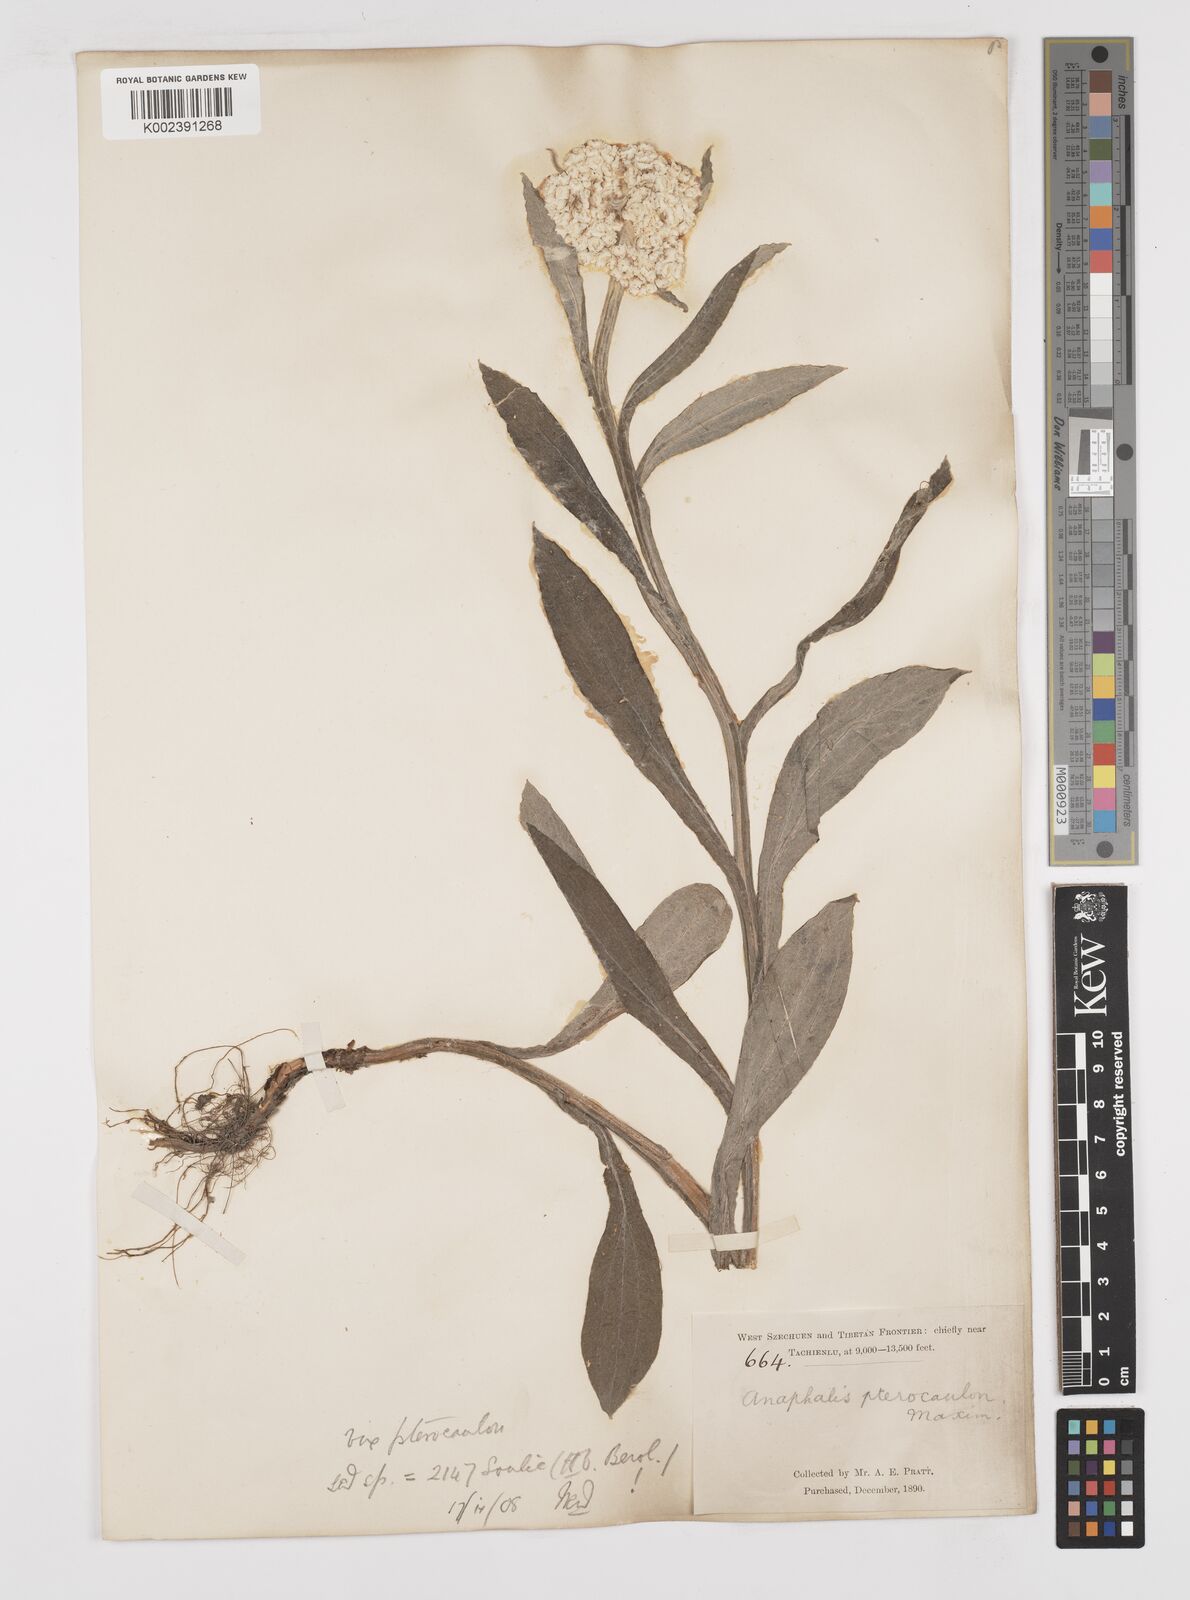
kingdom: Plantae
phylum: Tracheophyta
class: Magnoliopsida
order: Asterales
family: Asteraceae
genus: Anaphalis
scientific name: Anaphalis sinica
